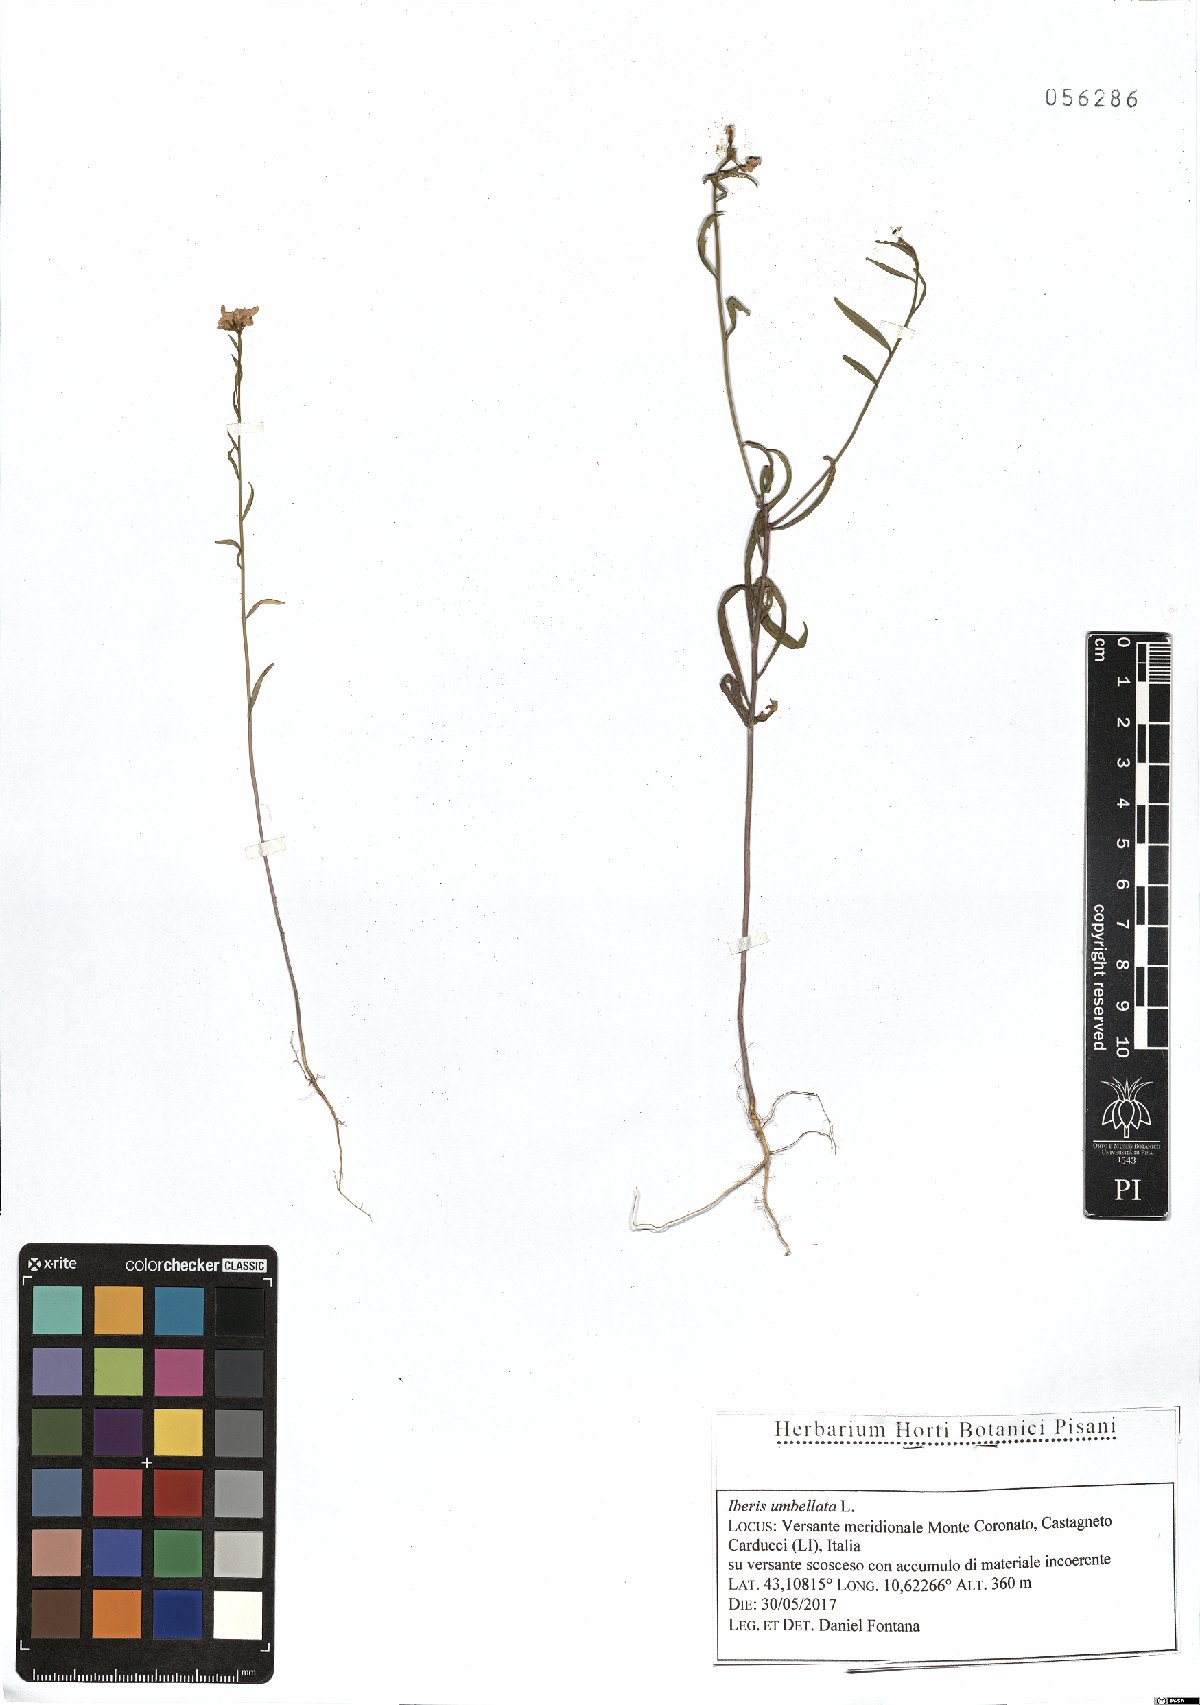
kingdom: Plantae
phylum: Tracheophyta
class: Magnoliopsida
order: Brassicales
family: Brassicaceae
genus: Iberis
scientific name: Iberis umbellata
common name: Globe candytuft
